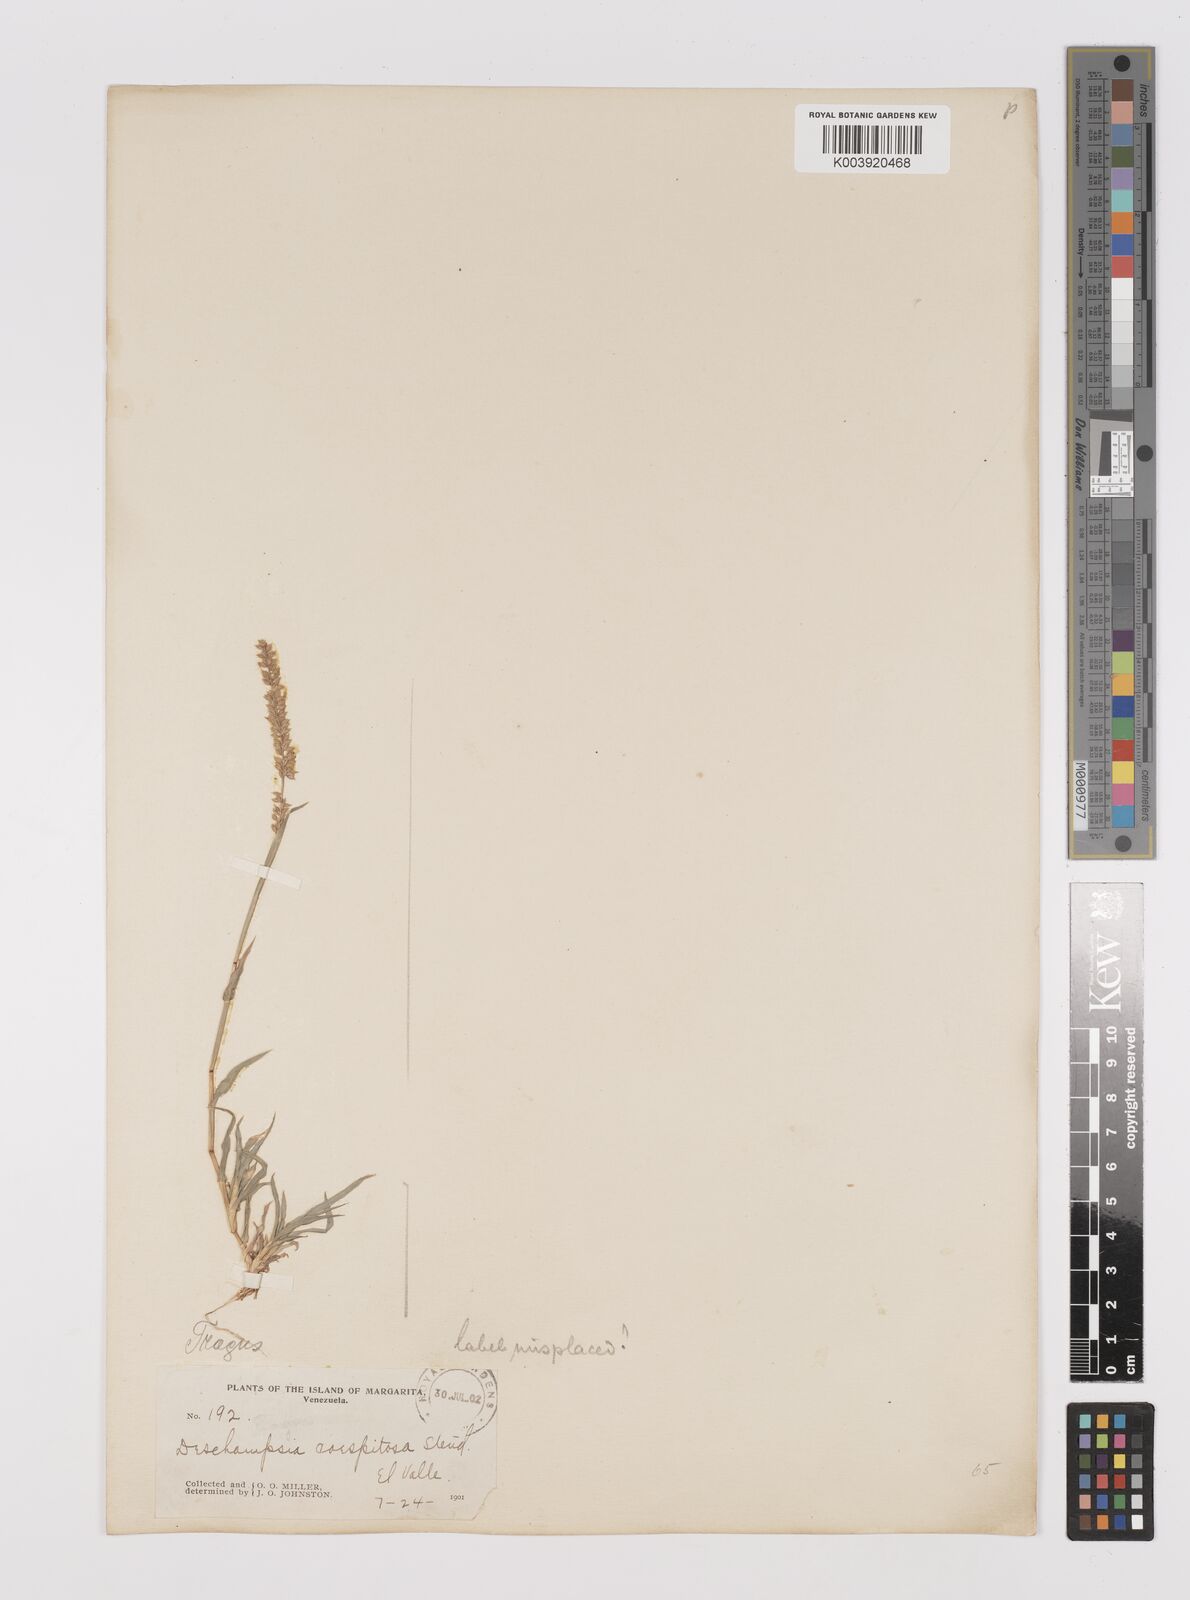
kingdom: Plantae
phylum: Tracheophyta
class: Liliopsida
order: Poales
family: Poaceae
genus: Tragus
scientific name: Tragus berteronianus
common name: African bur-grass
